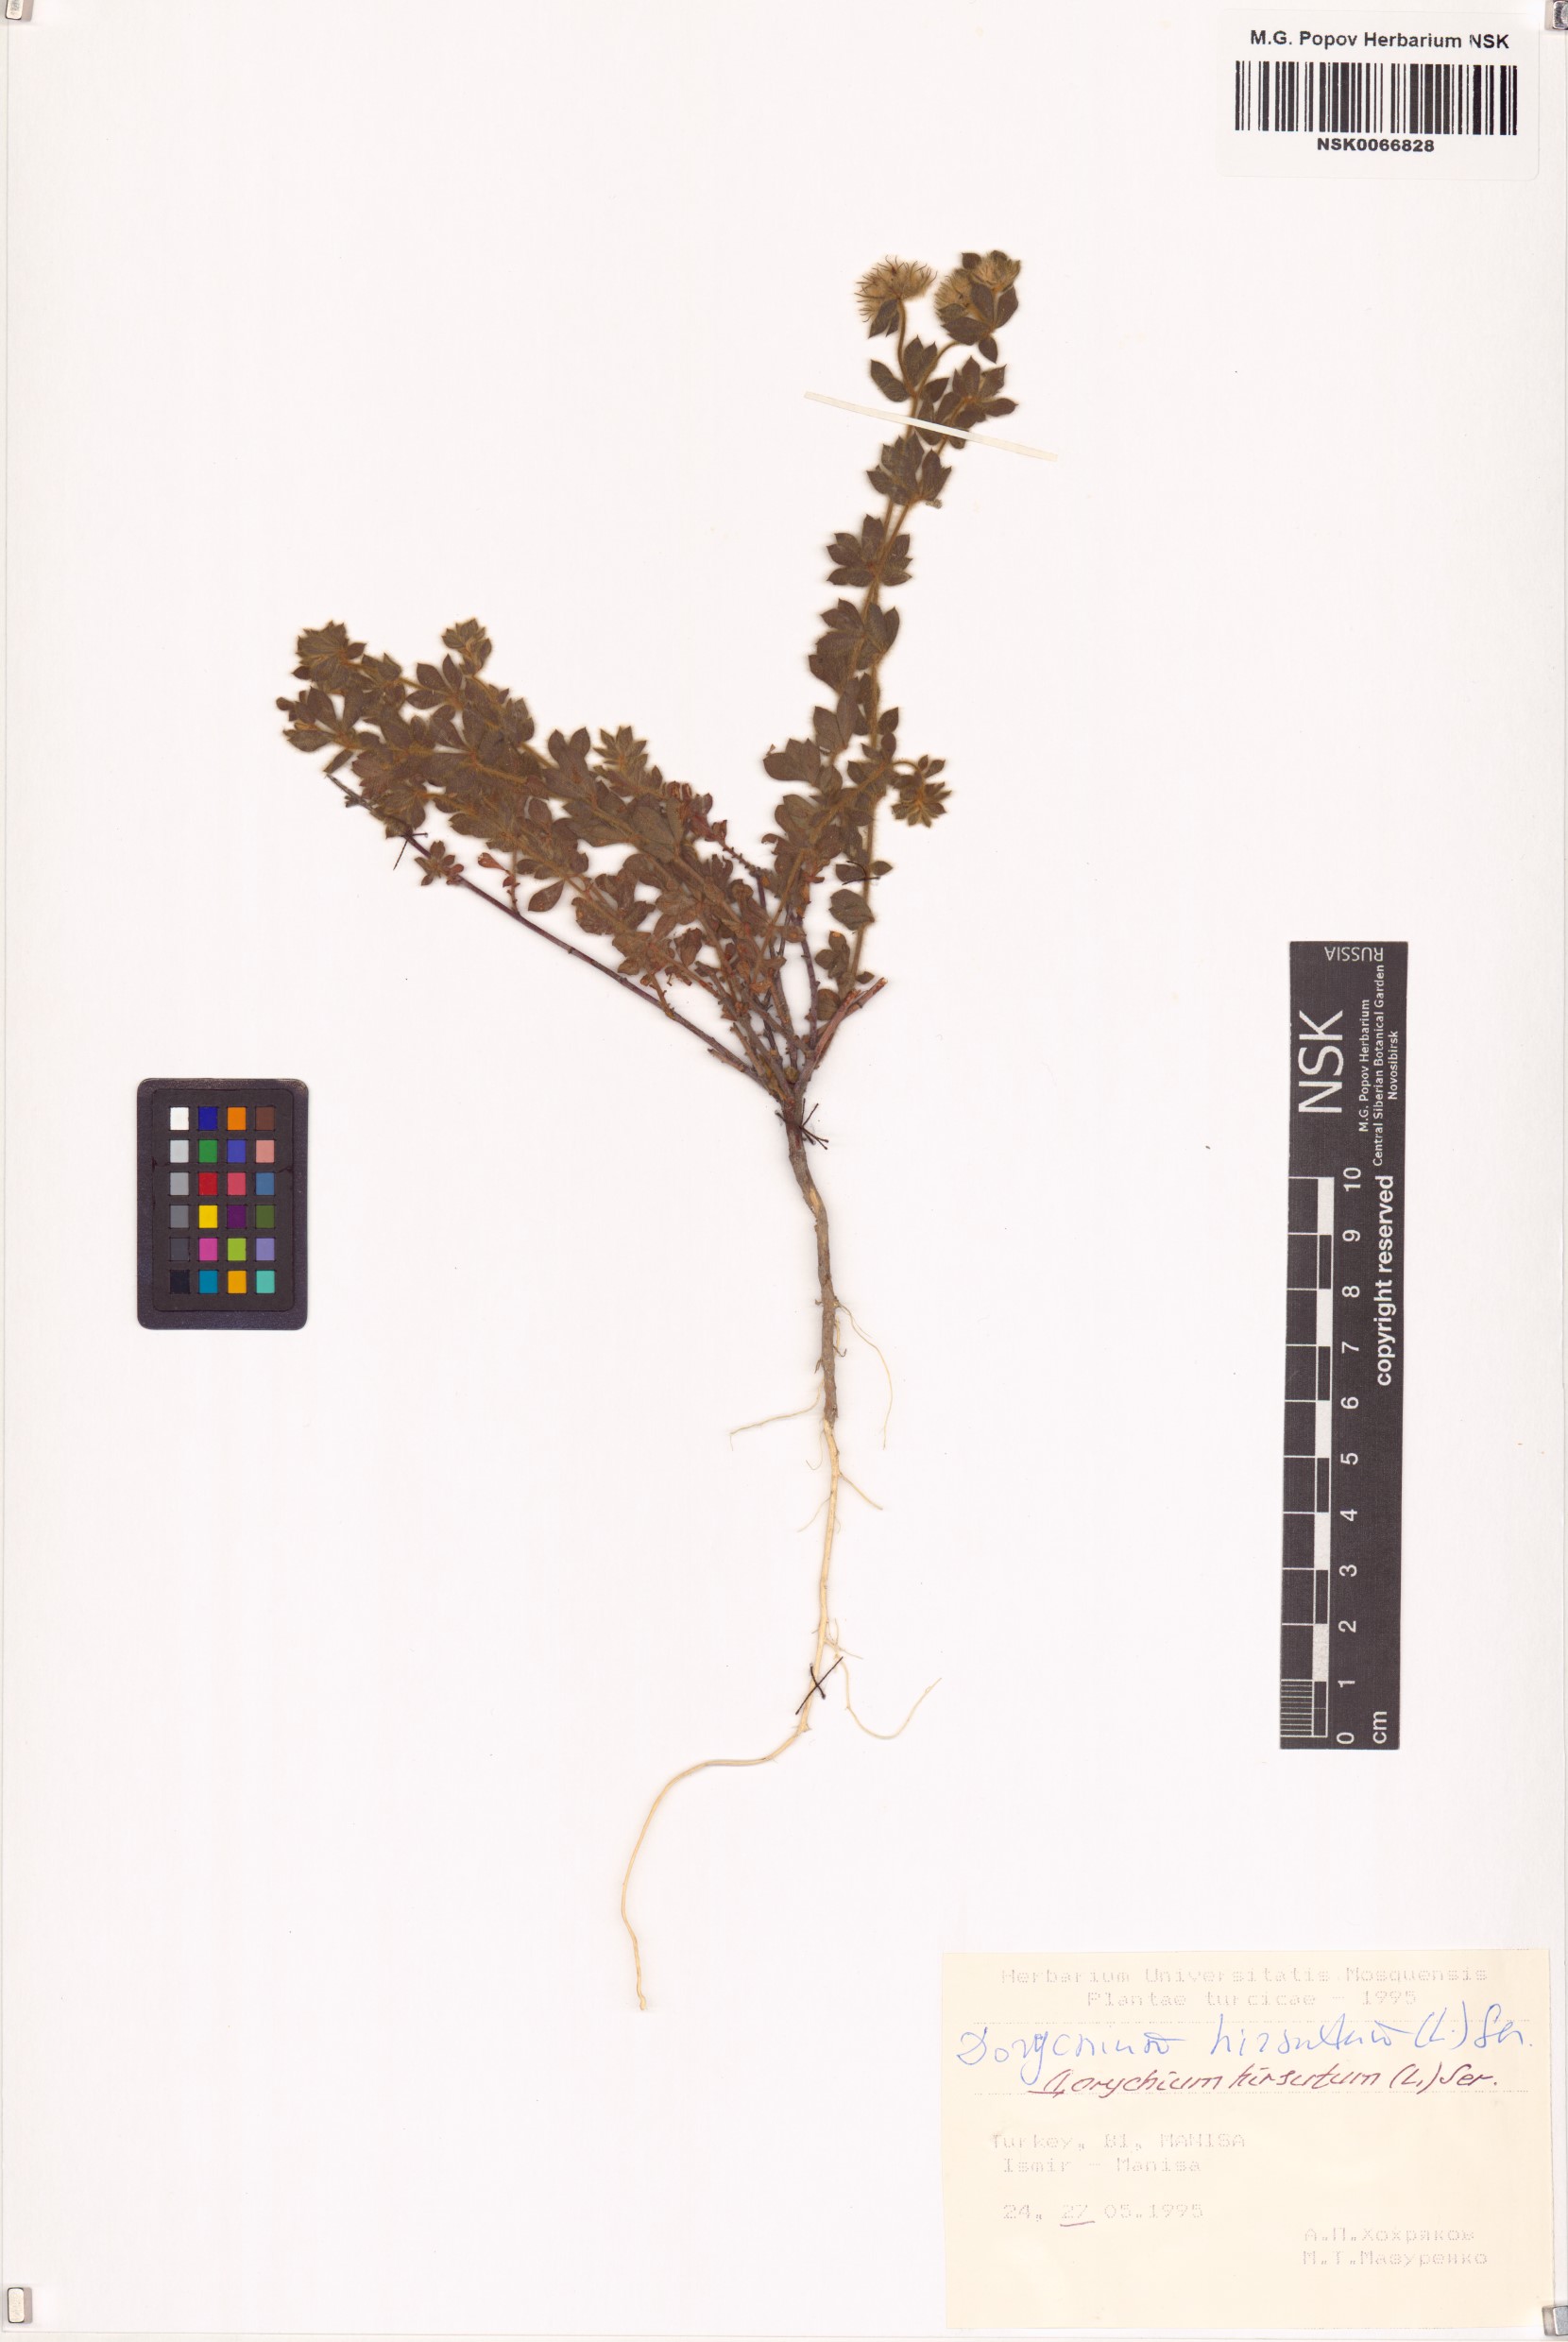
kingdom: Plantae
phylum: Tracheophyta
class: Magnoliopsida
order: Fabales
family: Fabaceae
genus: Lotus
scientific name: Lotus hirsutus
